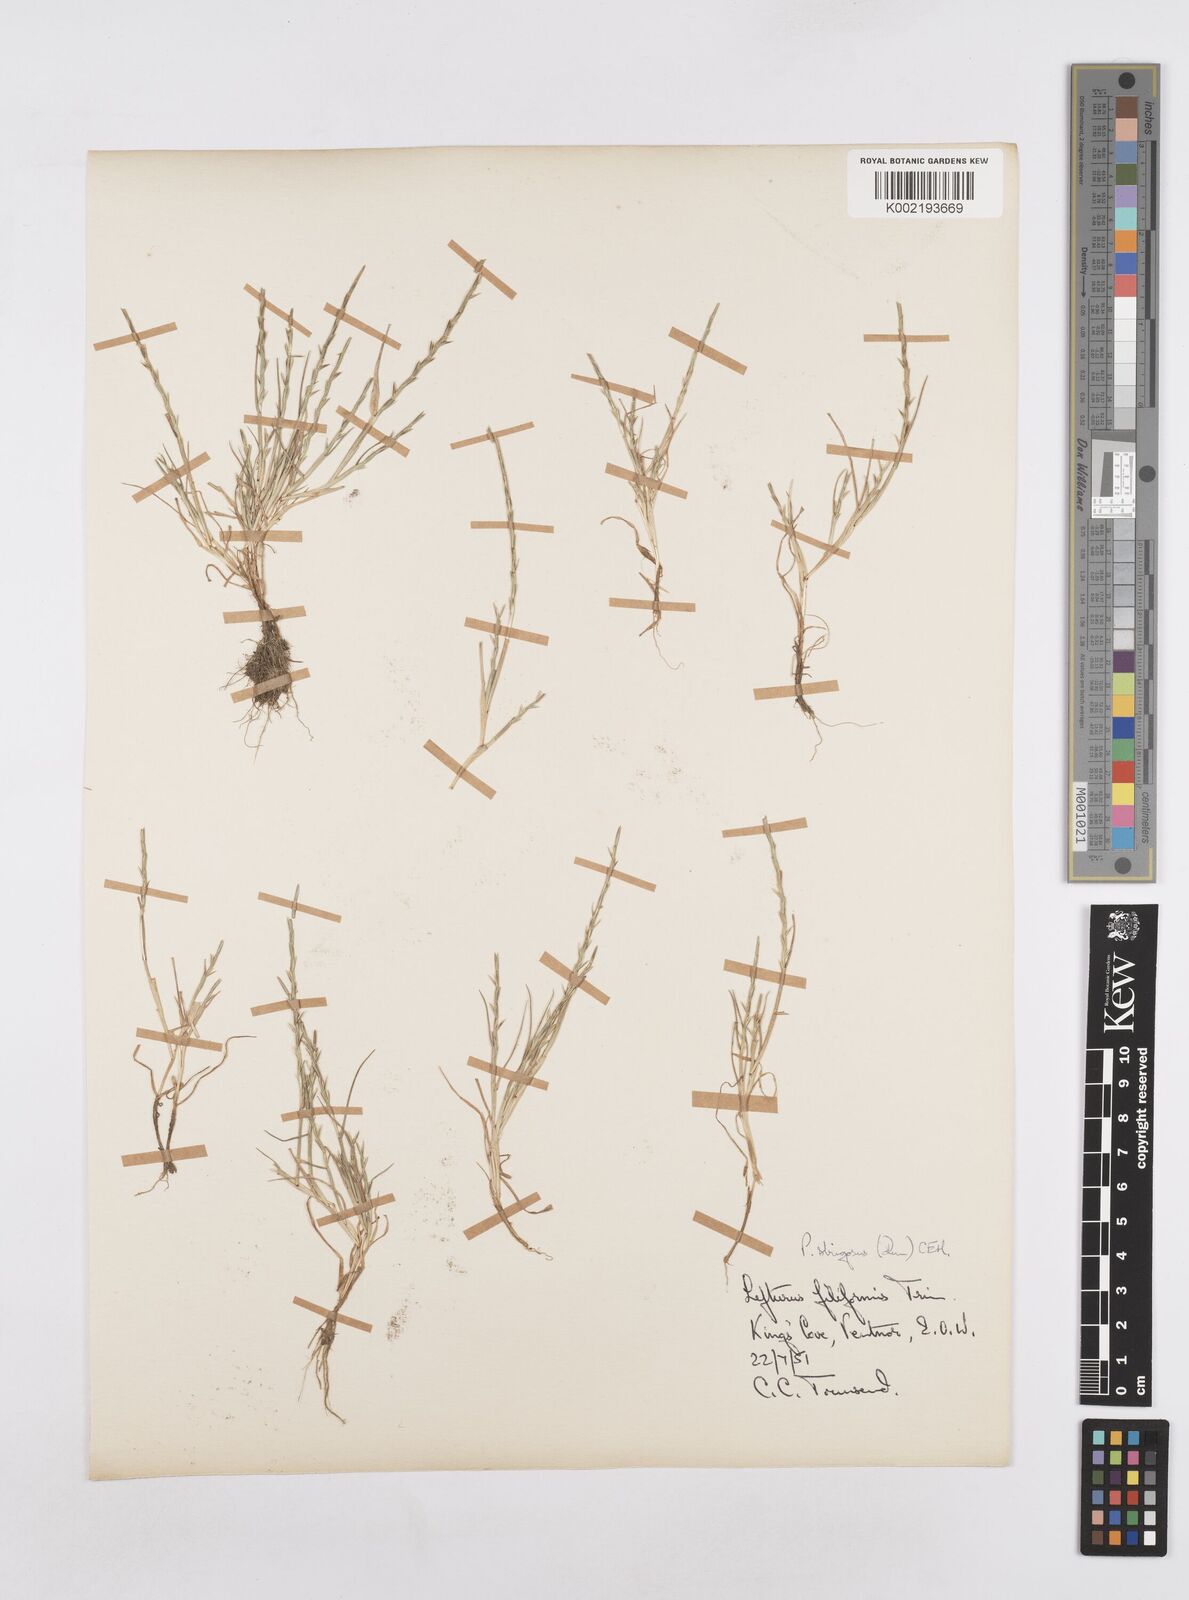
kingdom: Plantae
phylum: Tracheophyta
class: Liliopsida
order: Poales
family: Poaceae
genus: Parapholis
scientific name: Parapholis strigosa
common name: Hard-grass
